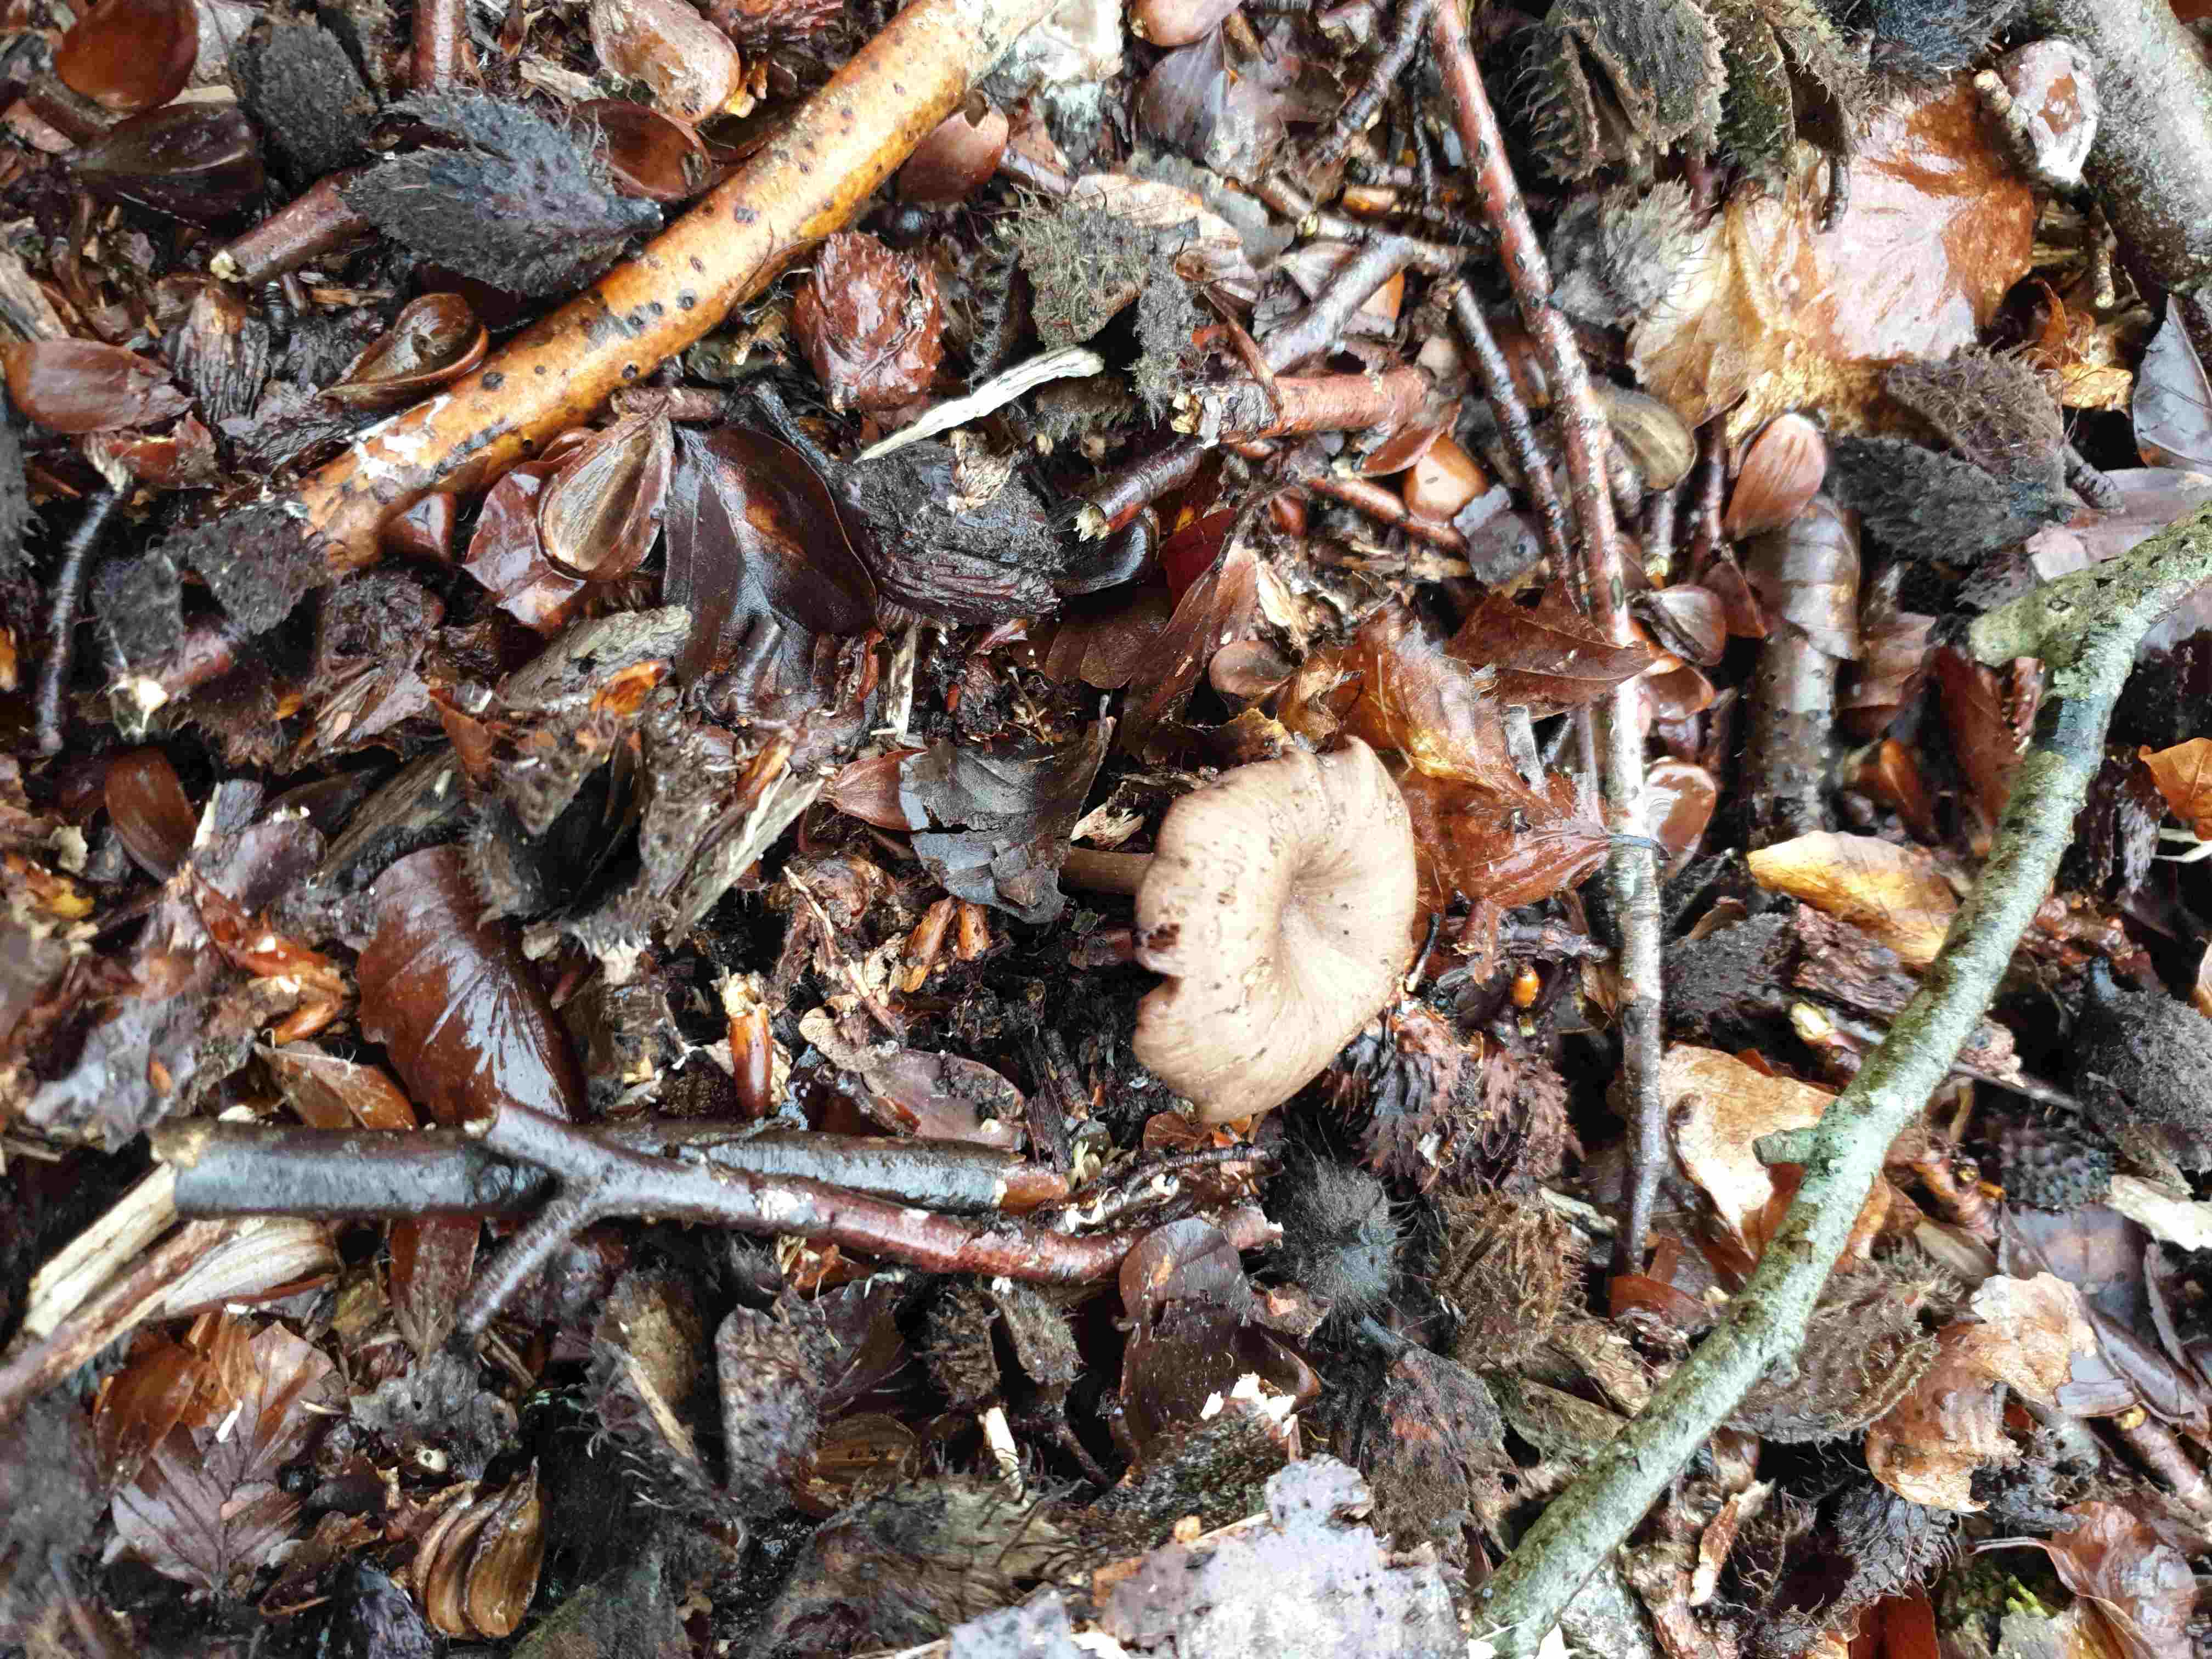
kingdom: Fungi
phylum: Basidiomycota
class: Agaricomycetes
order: Agaricales
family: Pseudoclitocybaceae
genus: Pseudoclitocybe
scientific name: Pseudoclitocybe cyathiformis
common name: almindelig bægertragthat
